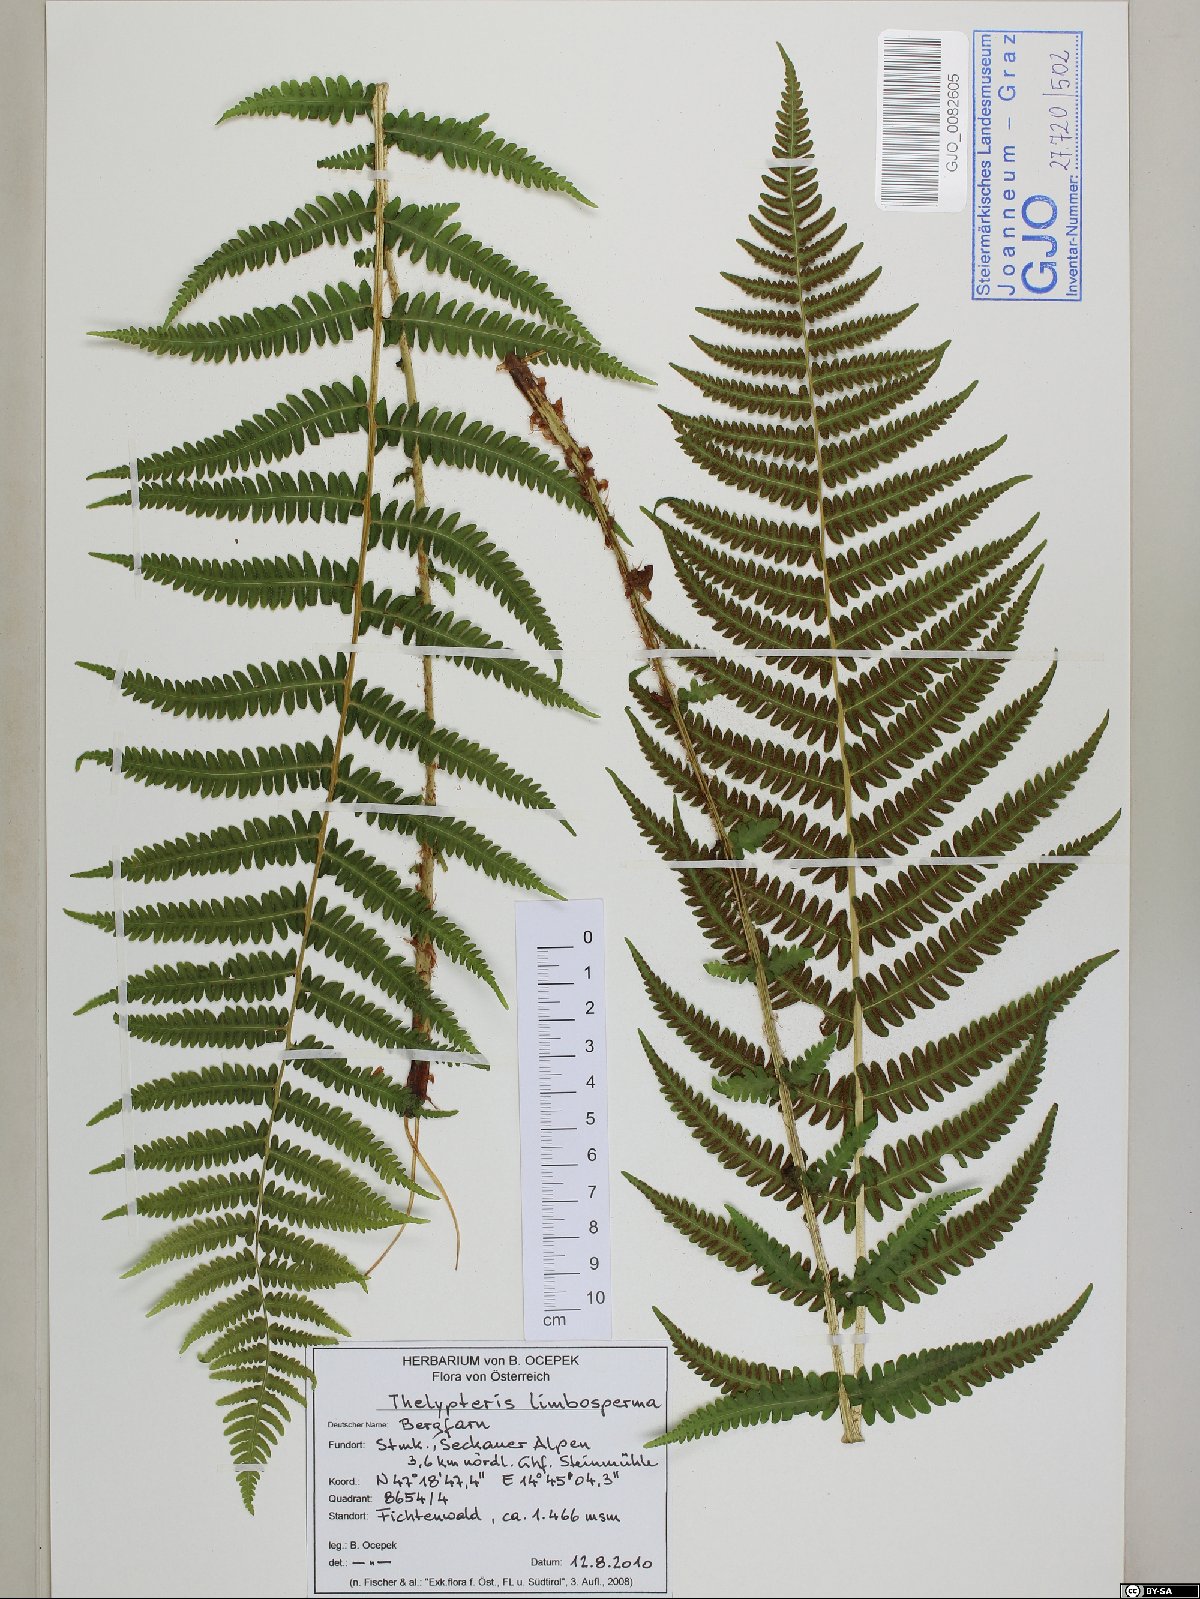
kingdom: Plantae
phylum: Tracheophyta
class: Polypodiopsida
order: Polypodiales
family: Thelypteridaceae
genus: Oreopteris
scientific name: Oreopteris limbosperma
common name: Lemon-scented fern
